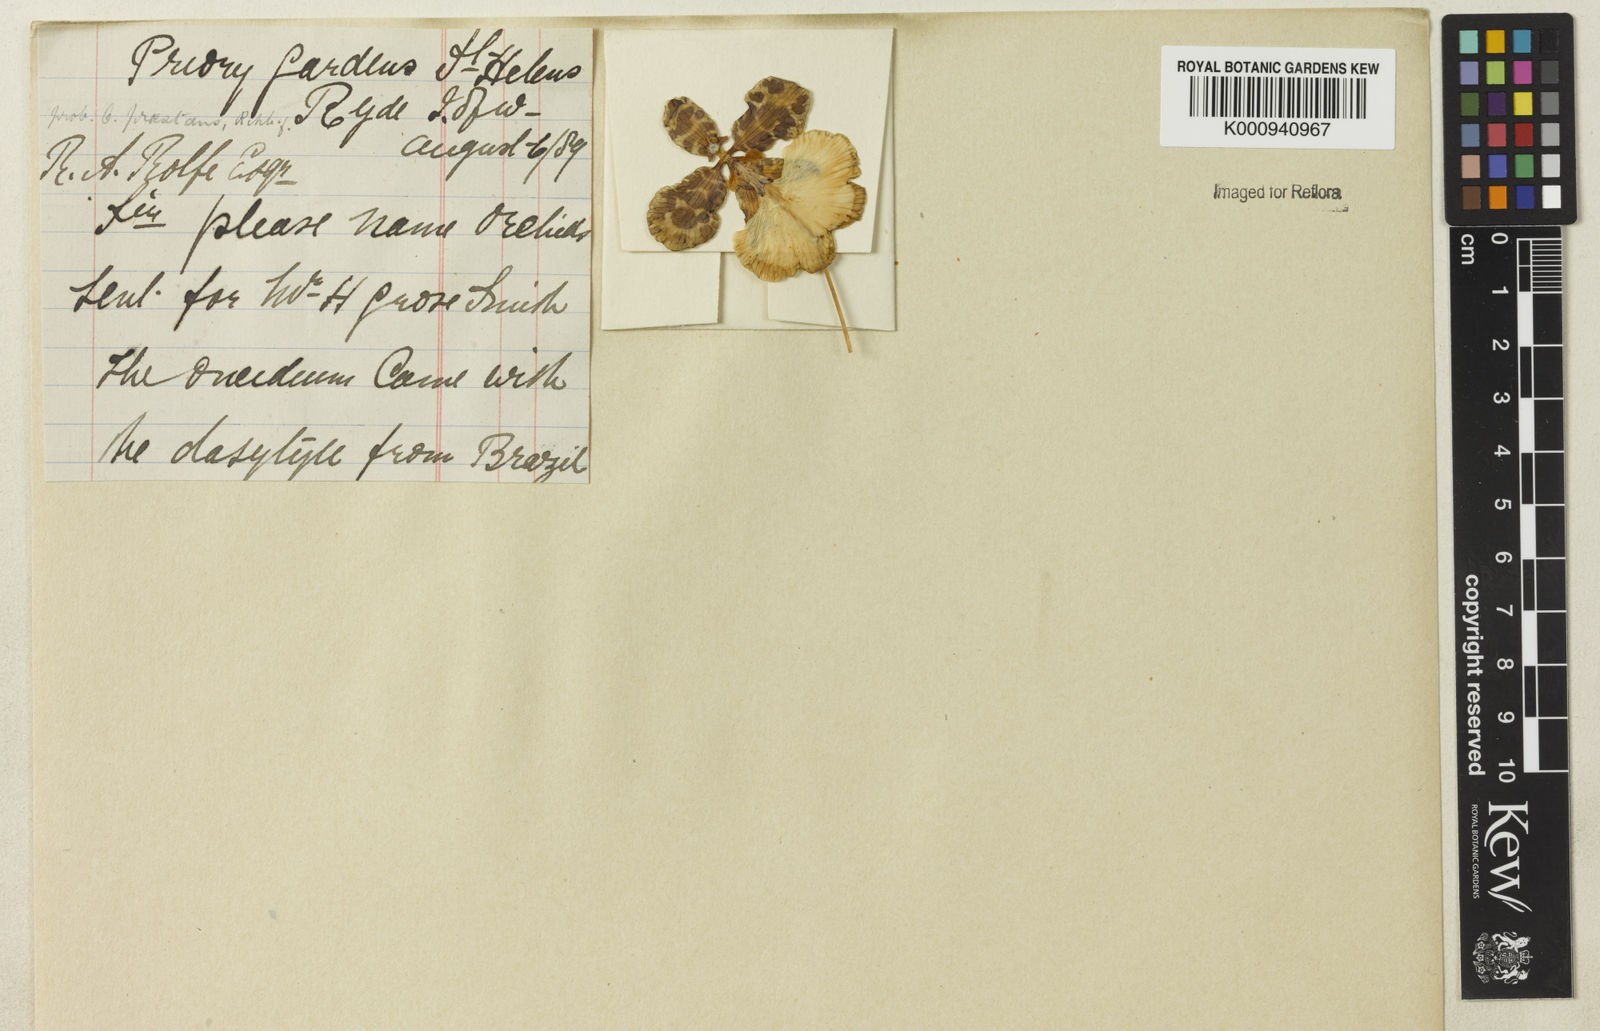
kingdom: Plantae
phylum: Tracheophyta
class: Liliopsida
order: Asparagales
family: Orchidaceae
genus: Oncidium
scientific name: Oncidium
